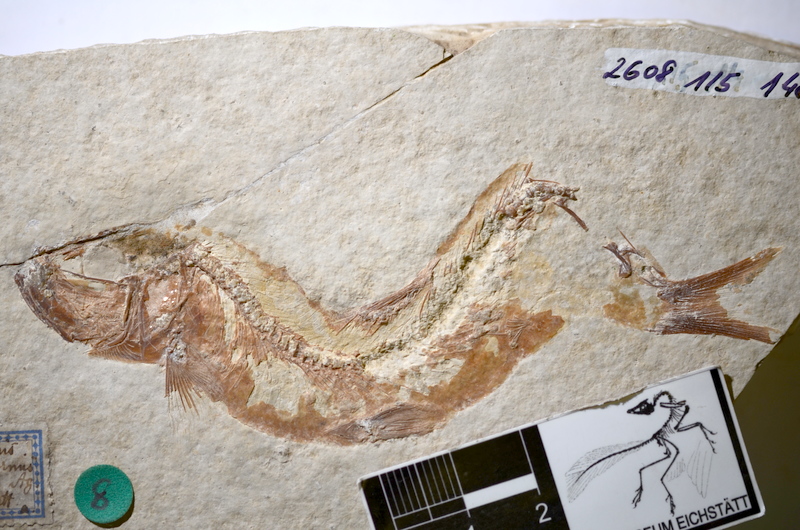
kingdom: Animalia
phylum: Chordata
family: Ascalaboidae
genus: Tharsis
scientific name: Tharsis dubius
